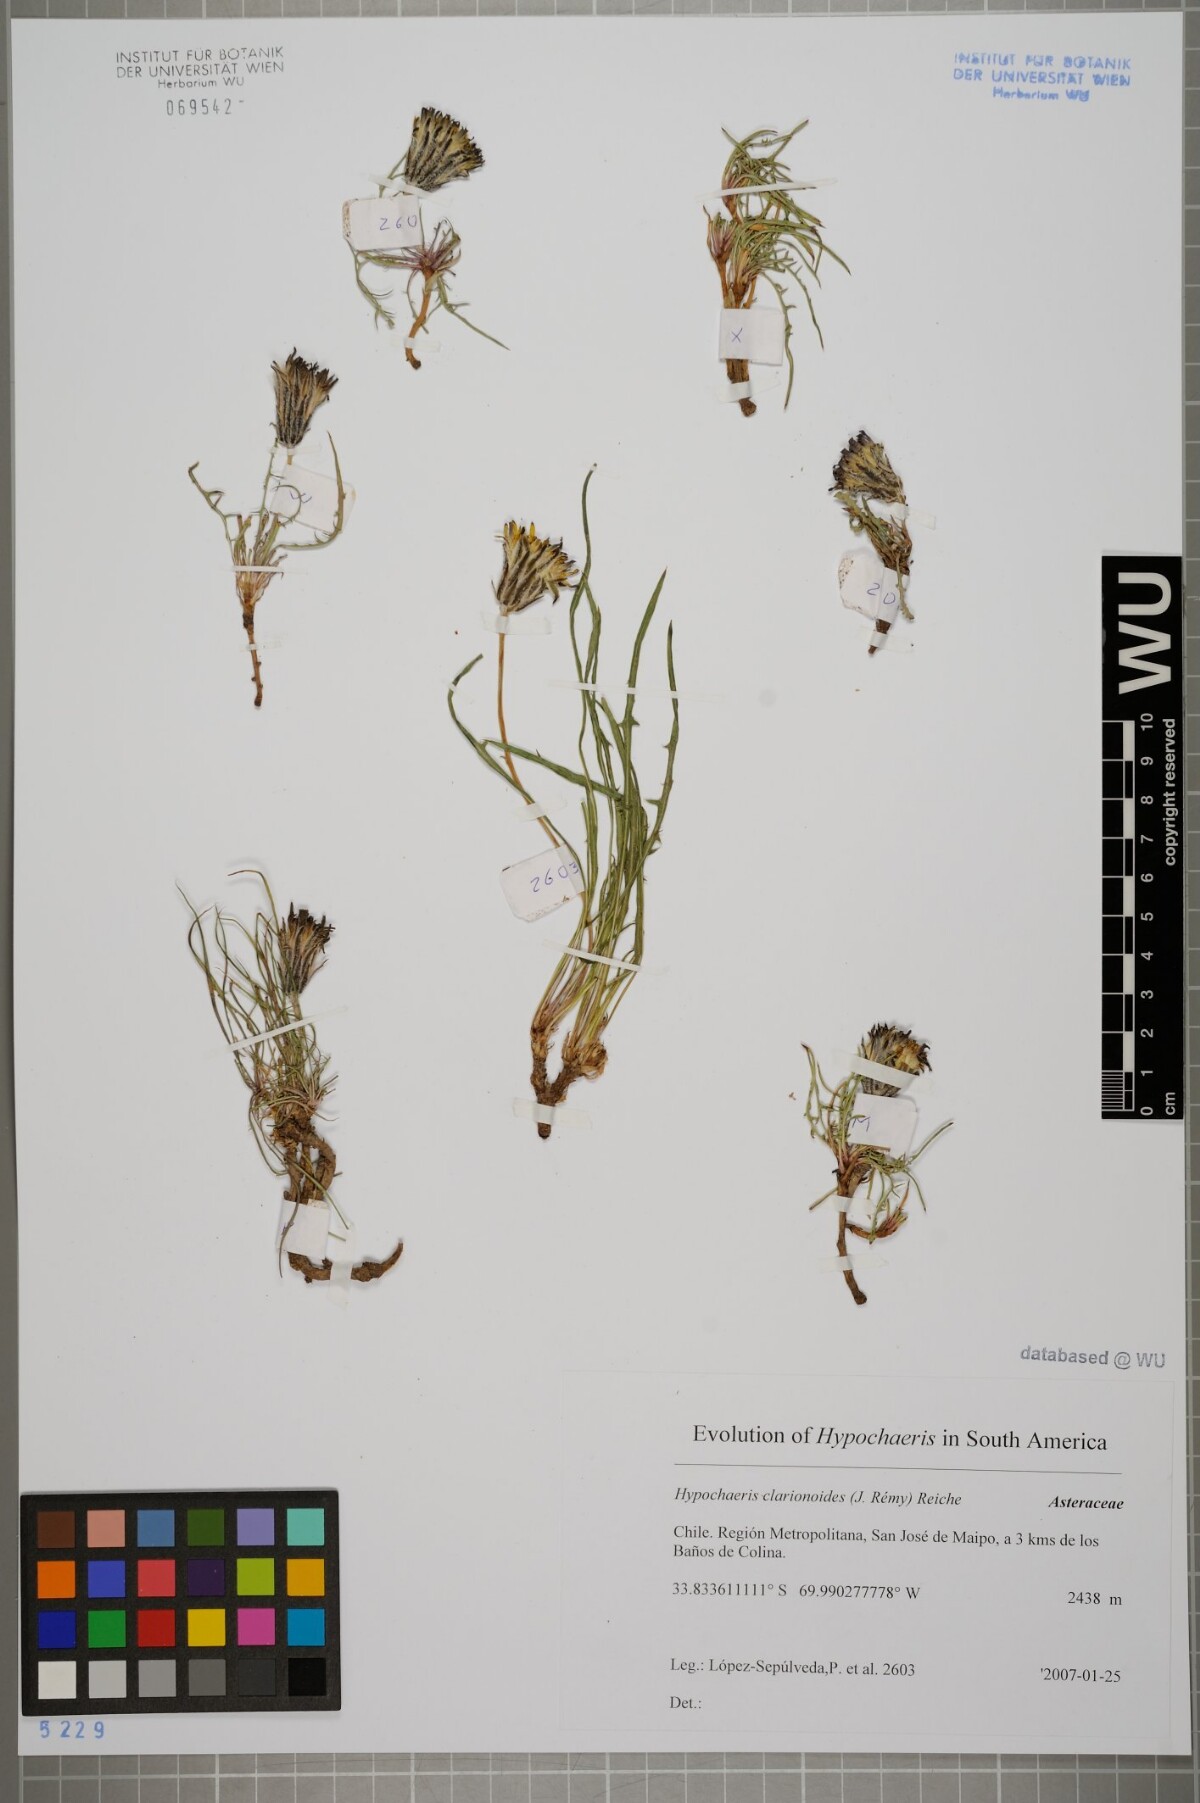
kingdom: Plantae
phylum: Tracheophyta
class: Magnoliopsida
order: Asterales
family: Asteraceae
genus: Hypochaeris
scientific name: Hypochaeris clarionoides
